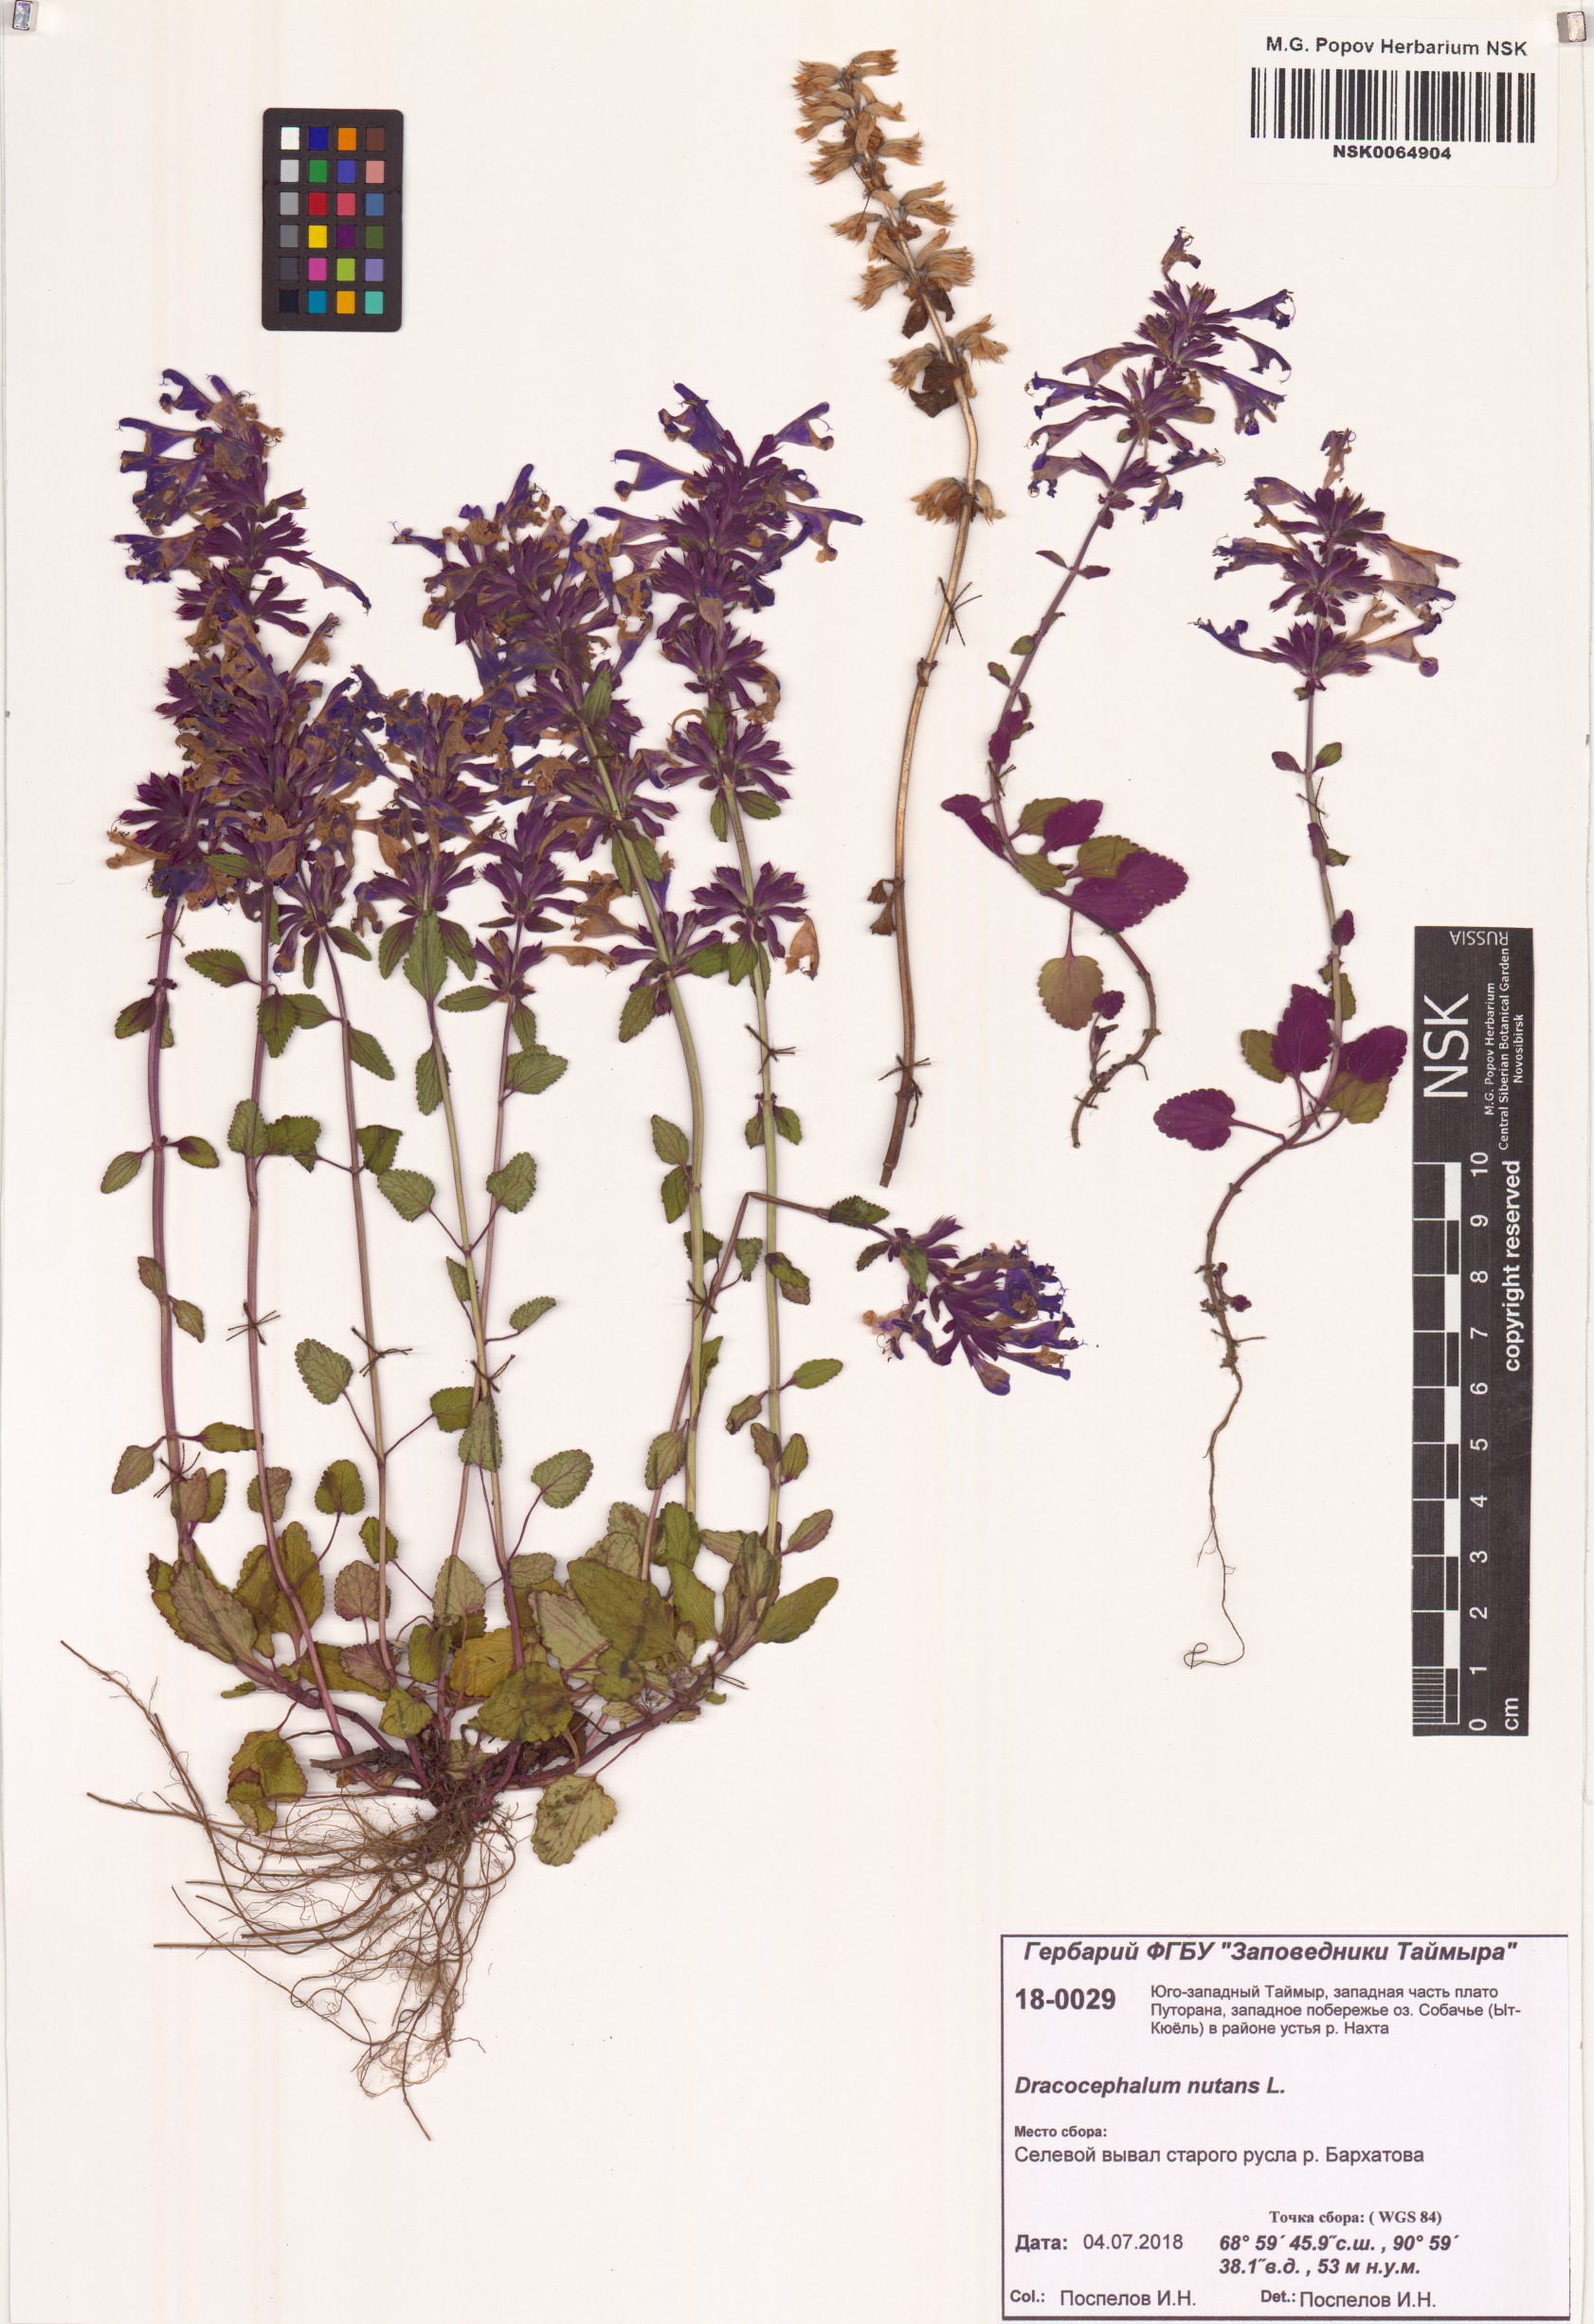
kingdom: Plantae
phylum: Tracheophyta
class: Magnoliopsida
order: Lamiales
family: Lamiaceae
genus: Dracocephalum
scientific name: Dracocephalum nutans
